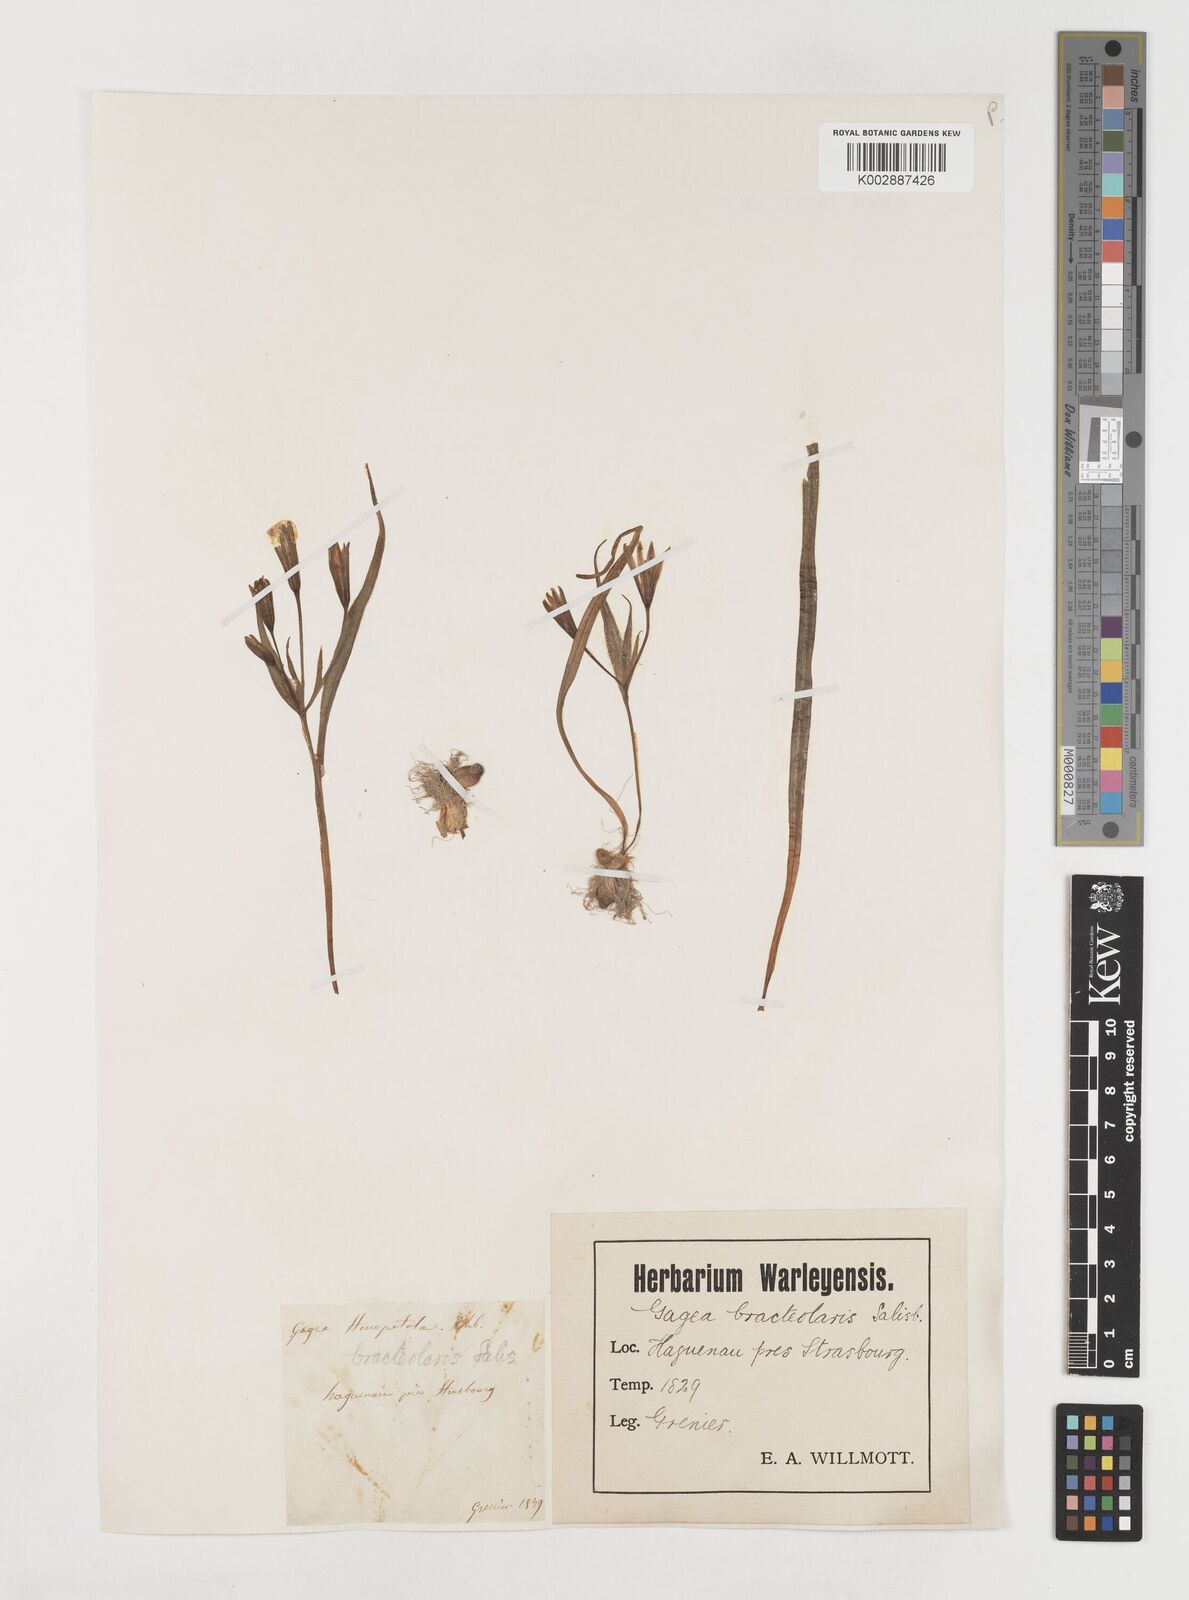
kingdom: Plantae
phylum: Tracheophyta
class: Liliopsida
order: Liliales
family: Liliaceae
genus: Gagea
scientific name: Gagea pratensis
